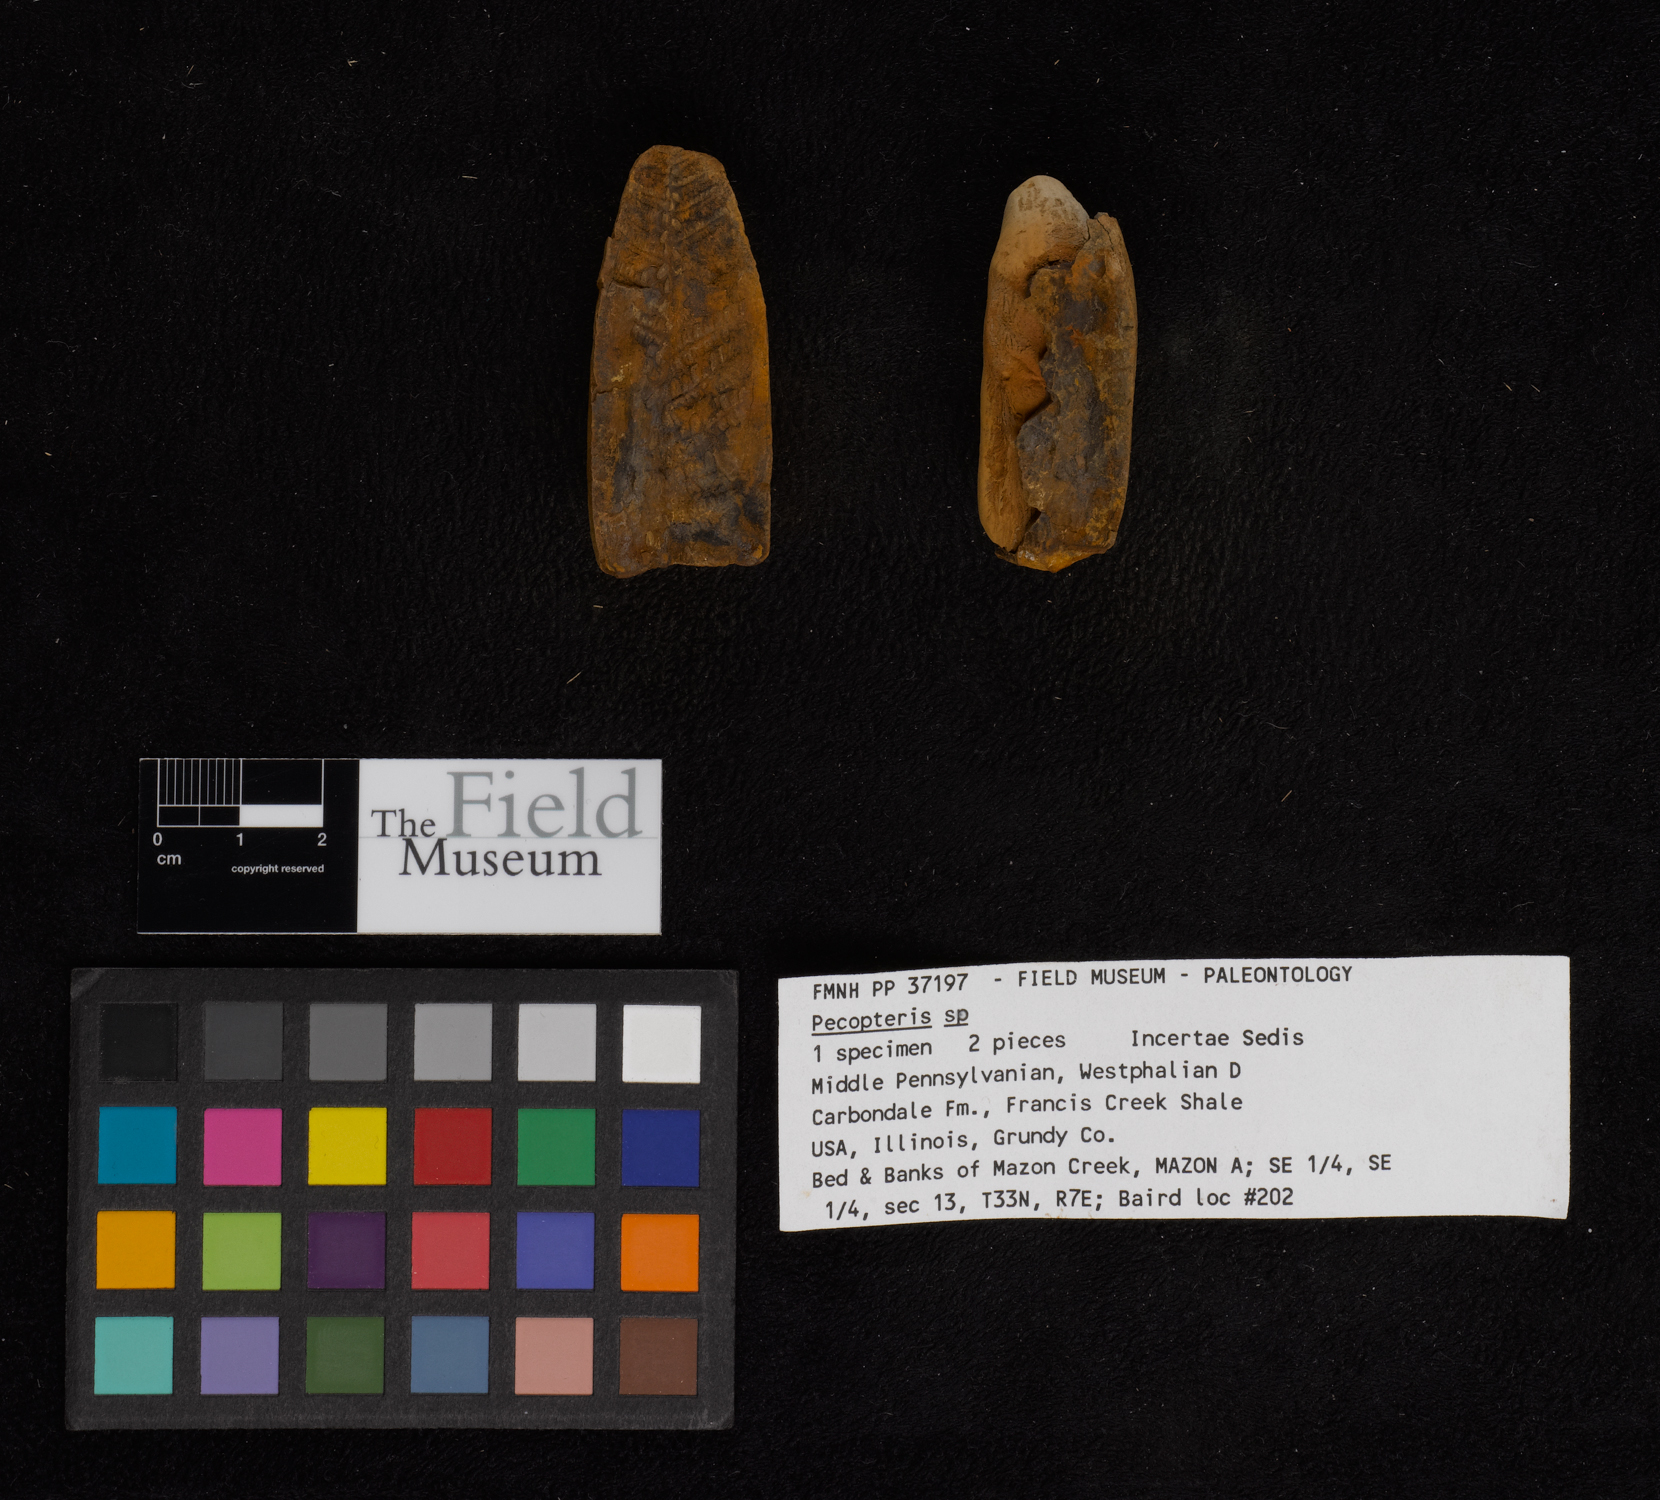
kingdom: Plantae
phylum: Tracheophyta
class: Polypodiopsida
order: Marattiales
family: Asterothecaceae
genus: Pecopteris
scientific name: Pecopteris
